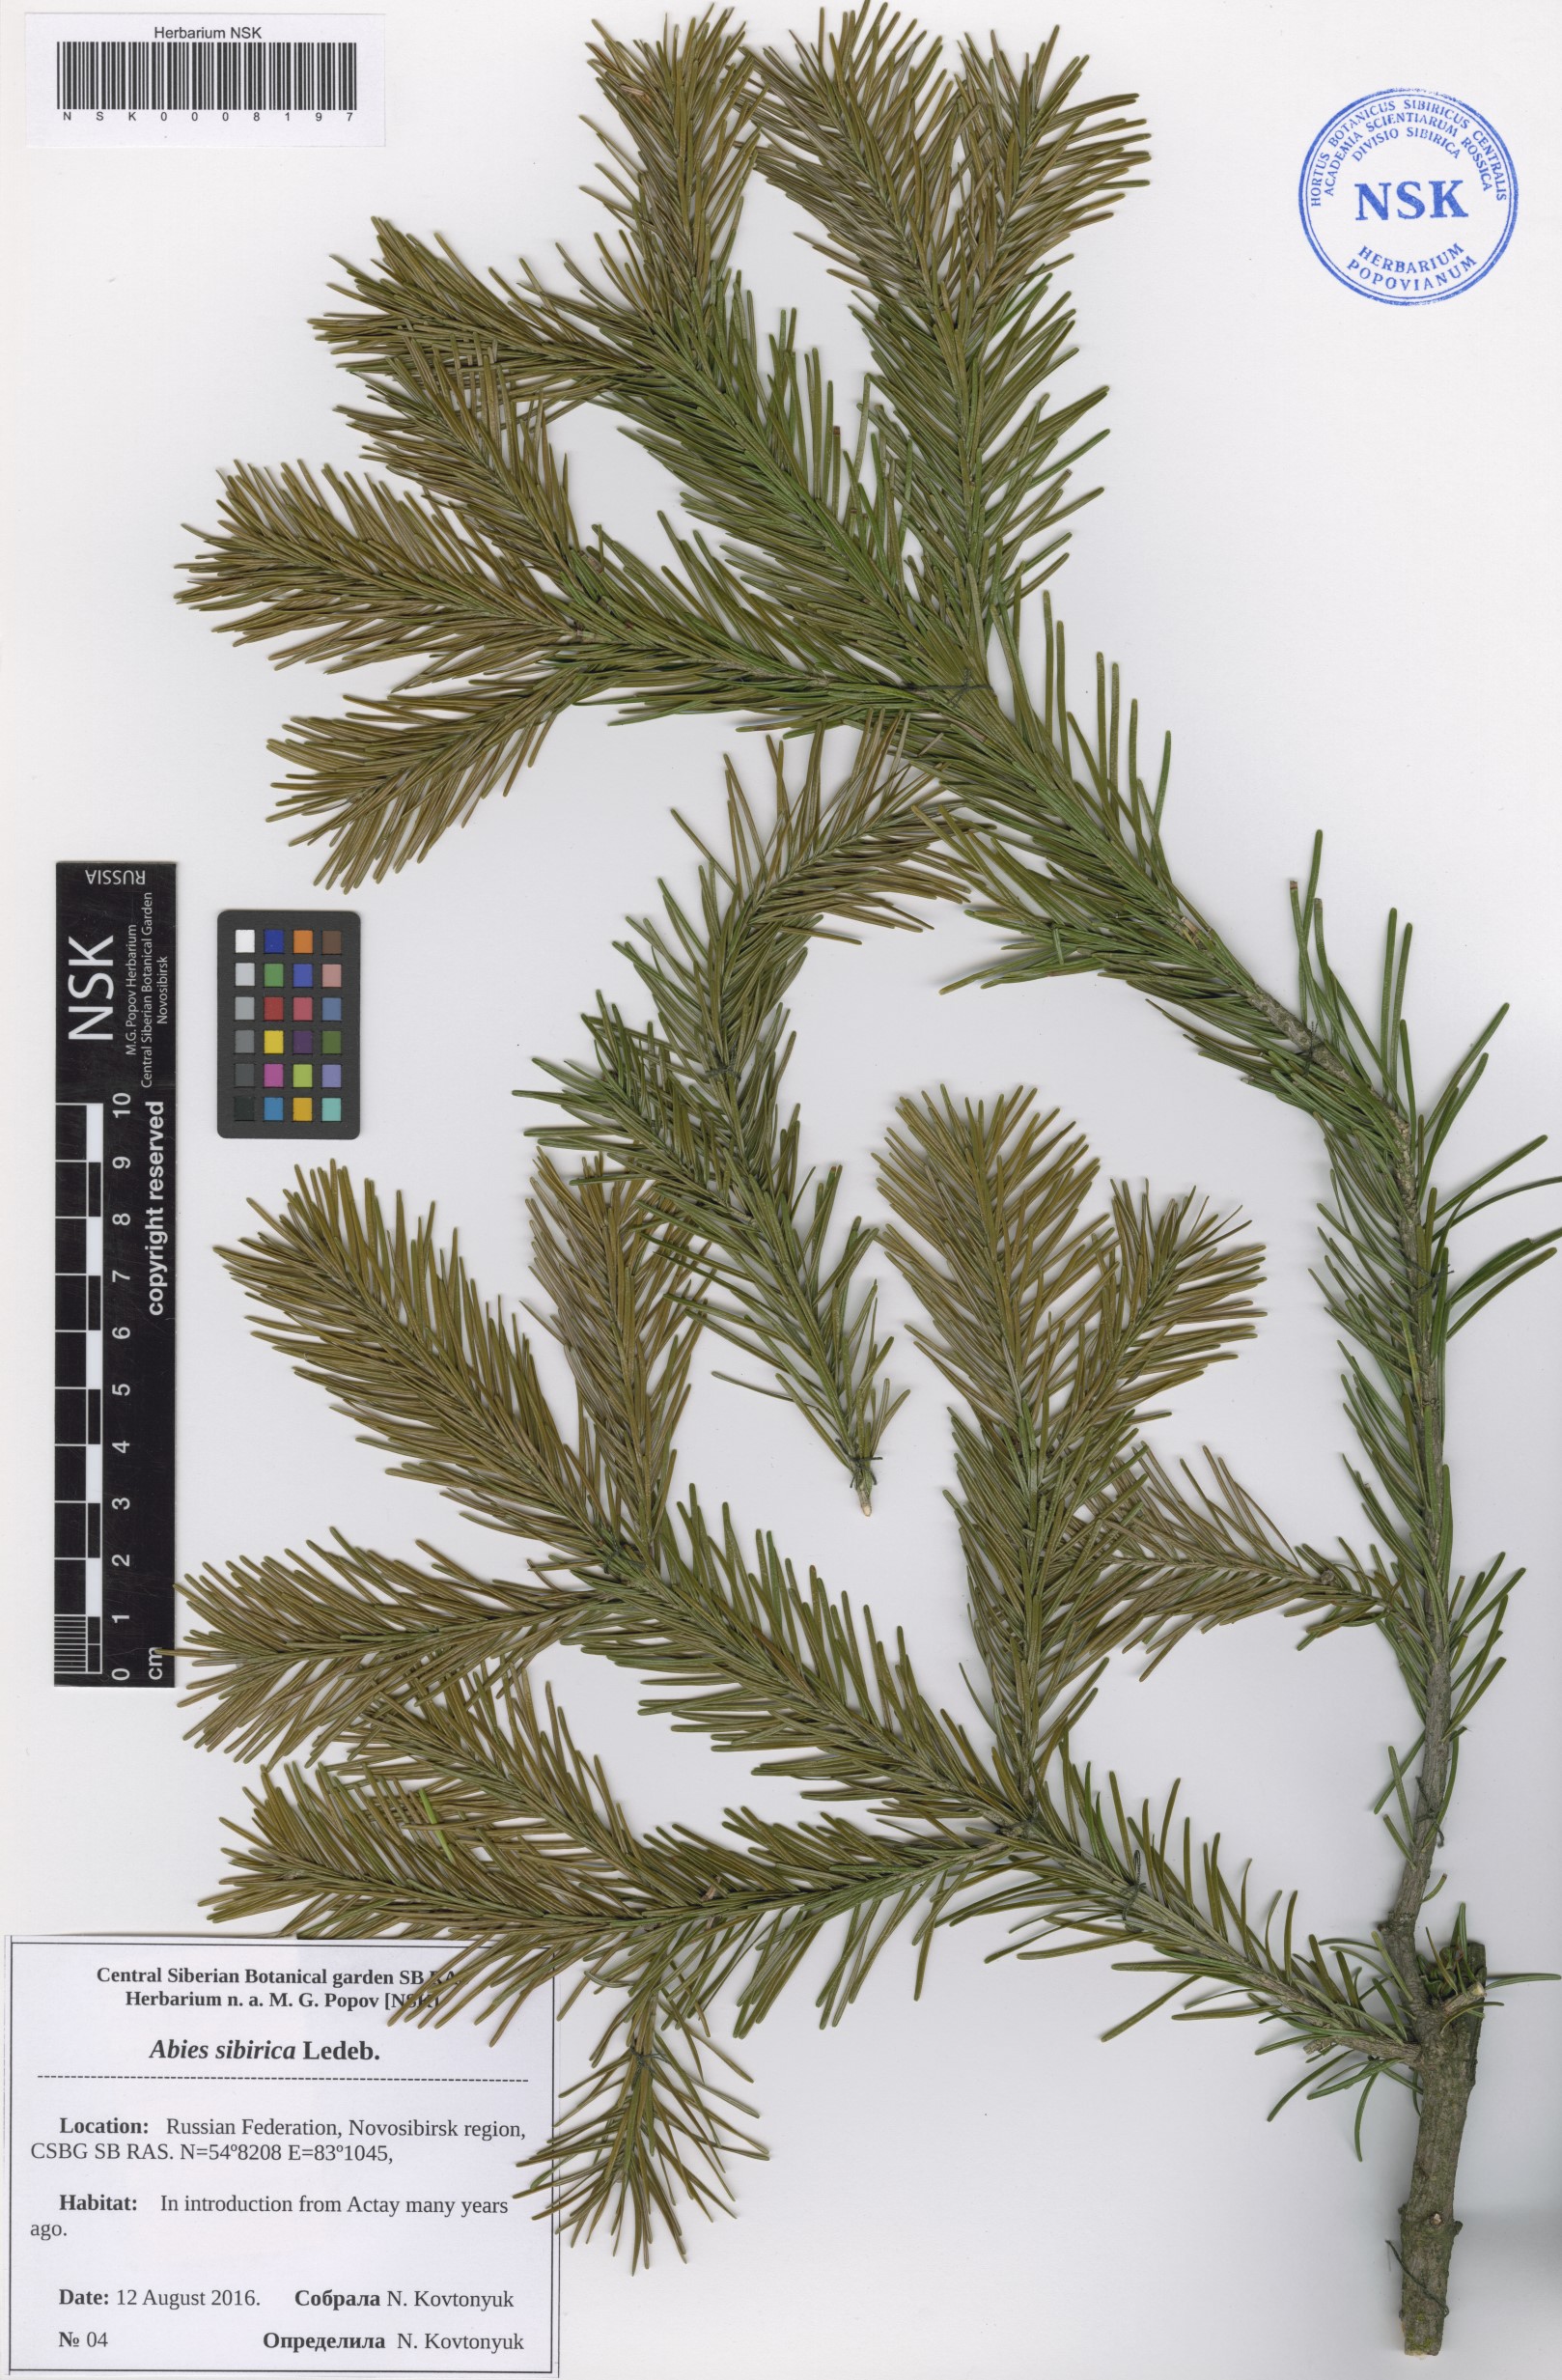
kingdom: Plantae
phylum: Tracheophyta
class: Pinopsida
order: Pinales
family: Pinaceae
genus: Abies
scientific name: Abies sibirica
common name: Siberian fir
